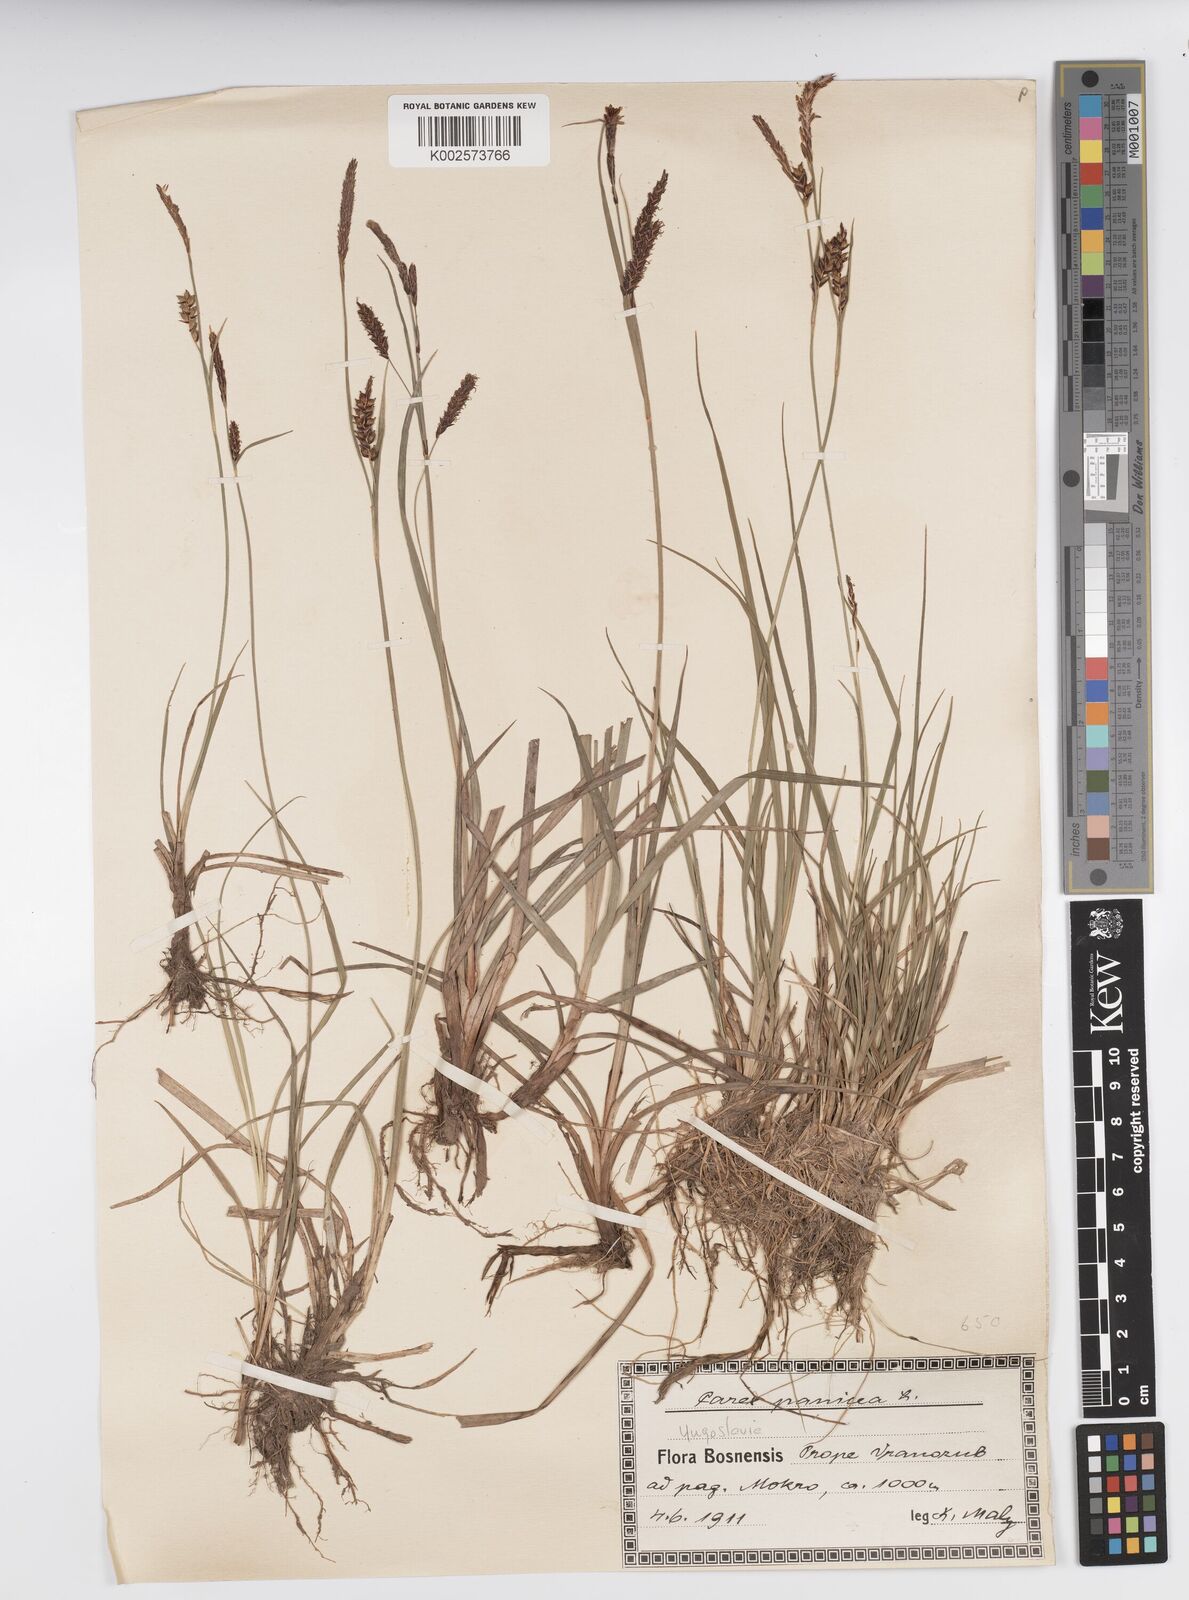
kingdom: Plantae
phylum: Tracheophyta
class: Liliopsida
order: Poales
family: Cyperaceae
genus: Carex
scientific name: Carex panicea
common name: Carnation sedge
